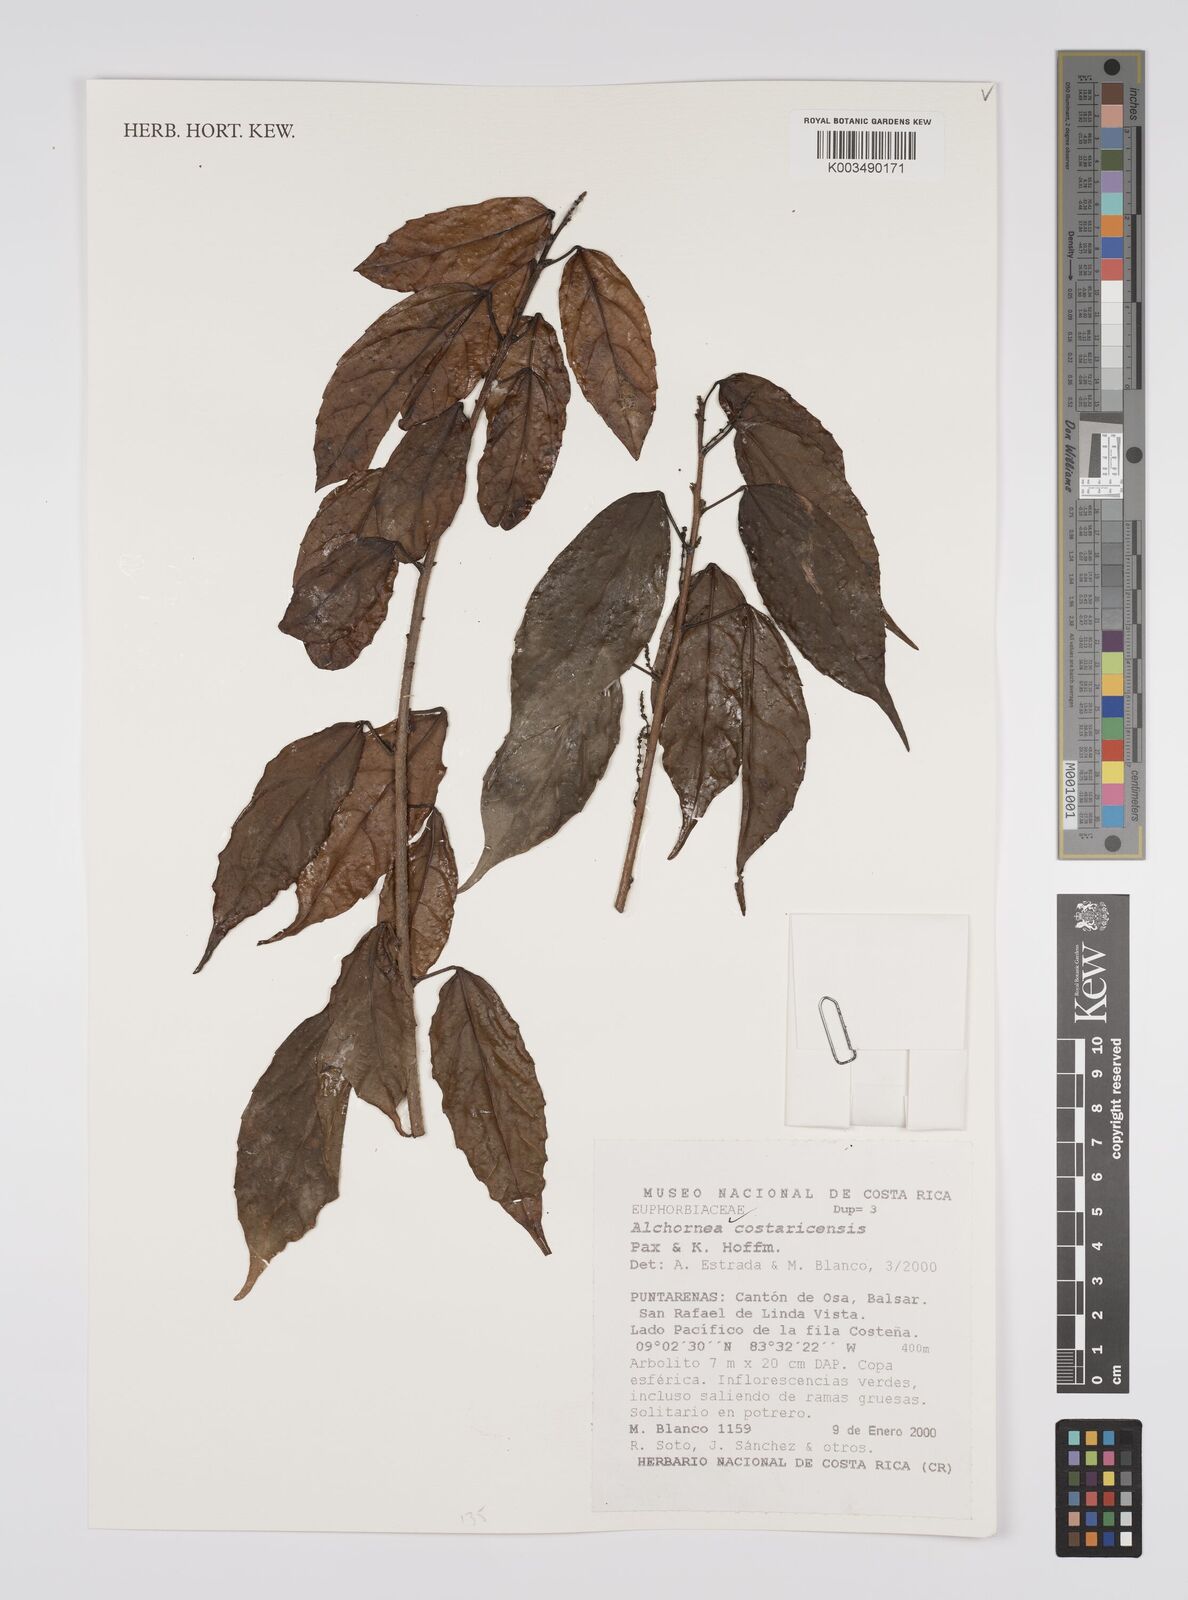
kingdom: Plantae
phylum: Tracheophyta
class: Magnoliopsida
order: Malpighiales
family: Euphorbiaceae
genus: Alchornea
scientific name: Alchornea costaricensis
